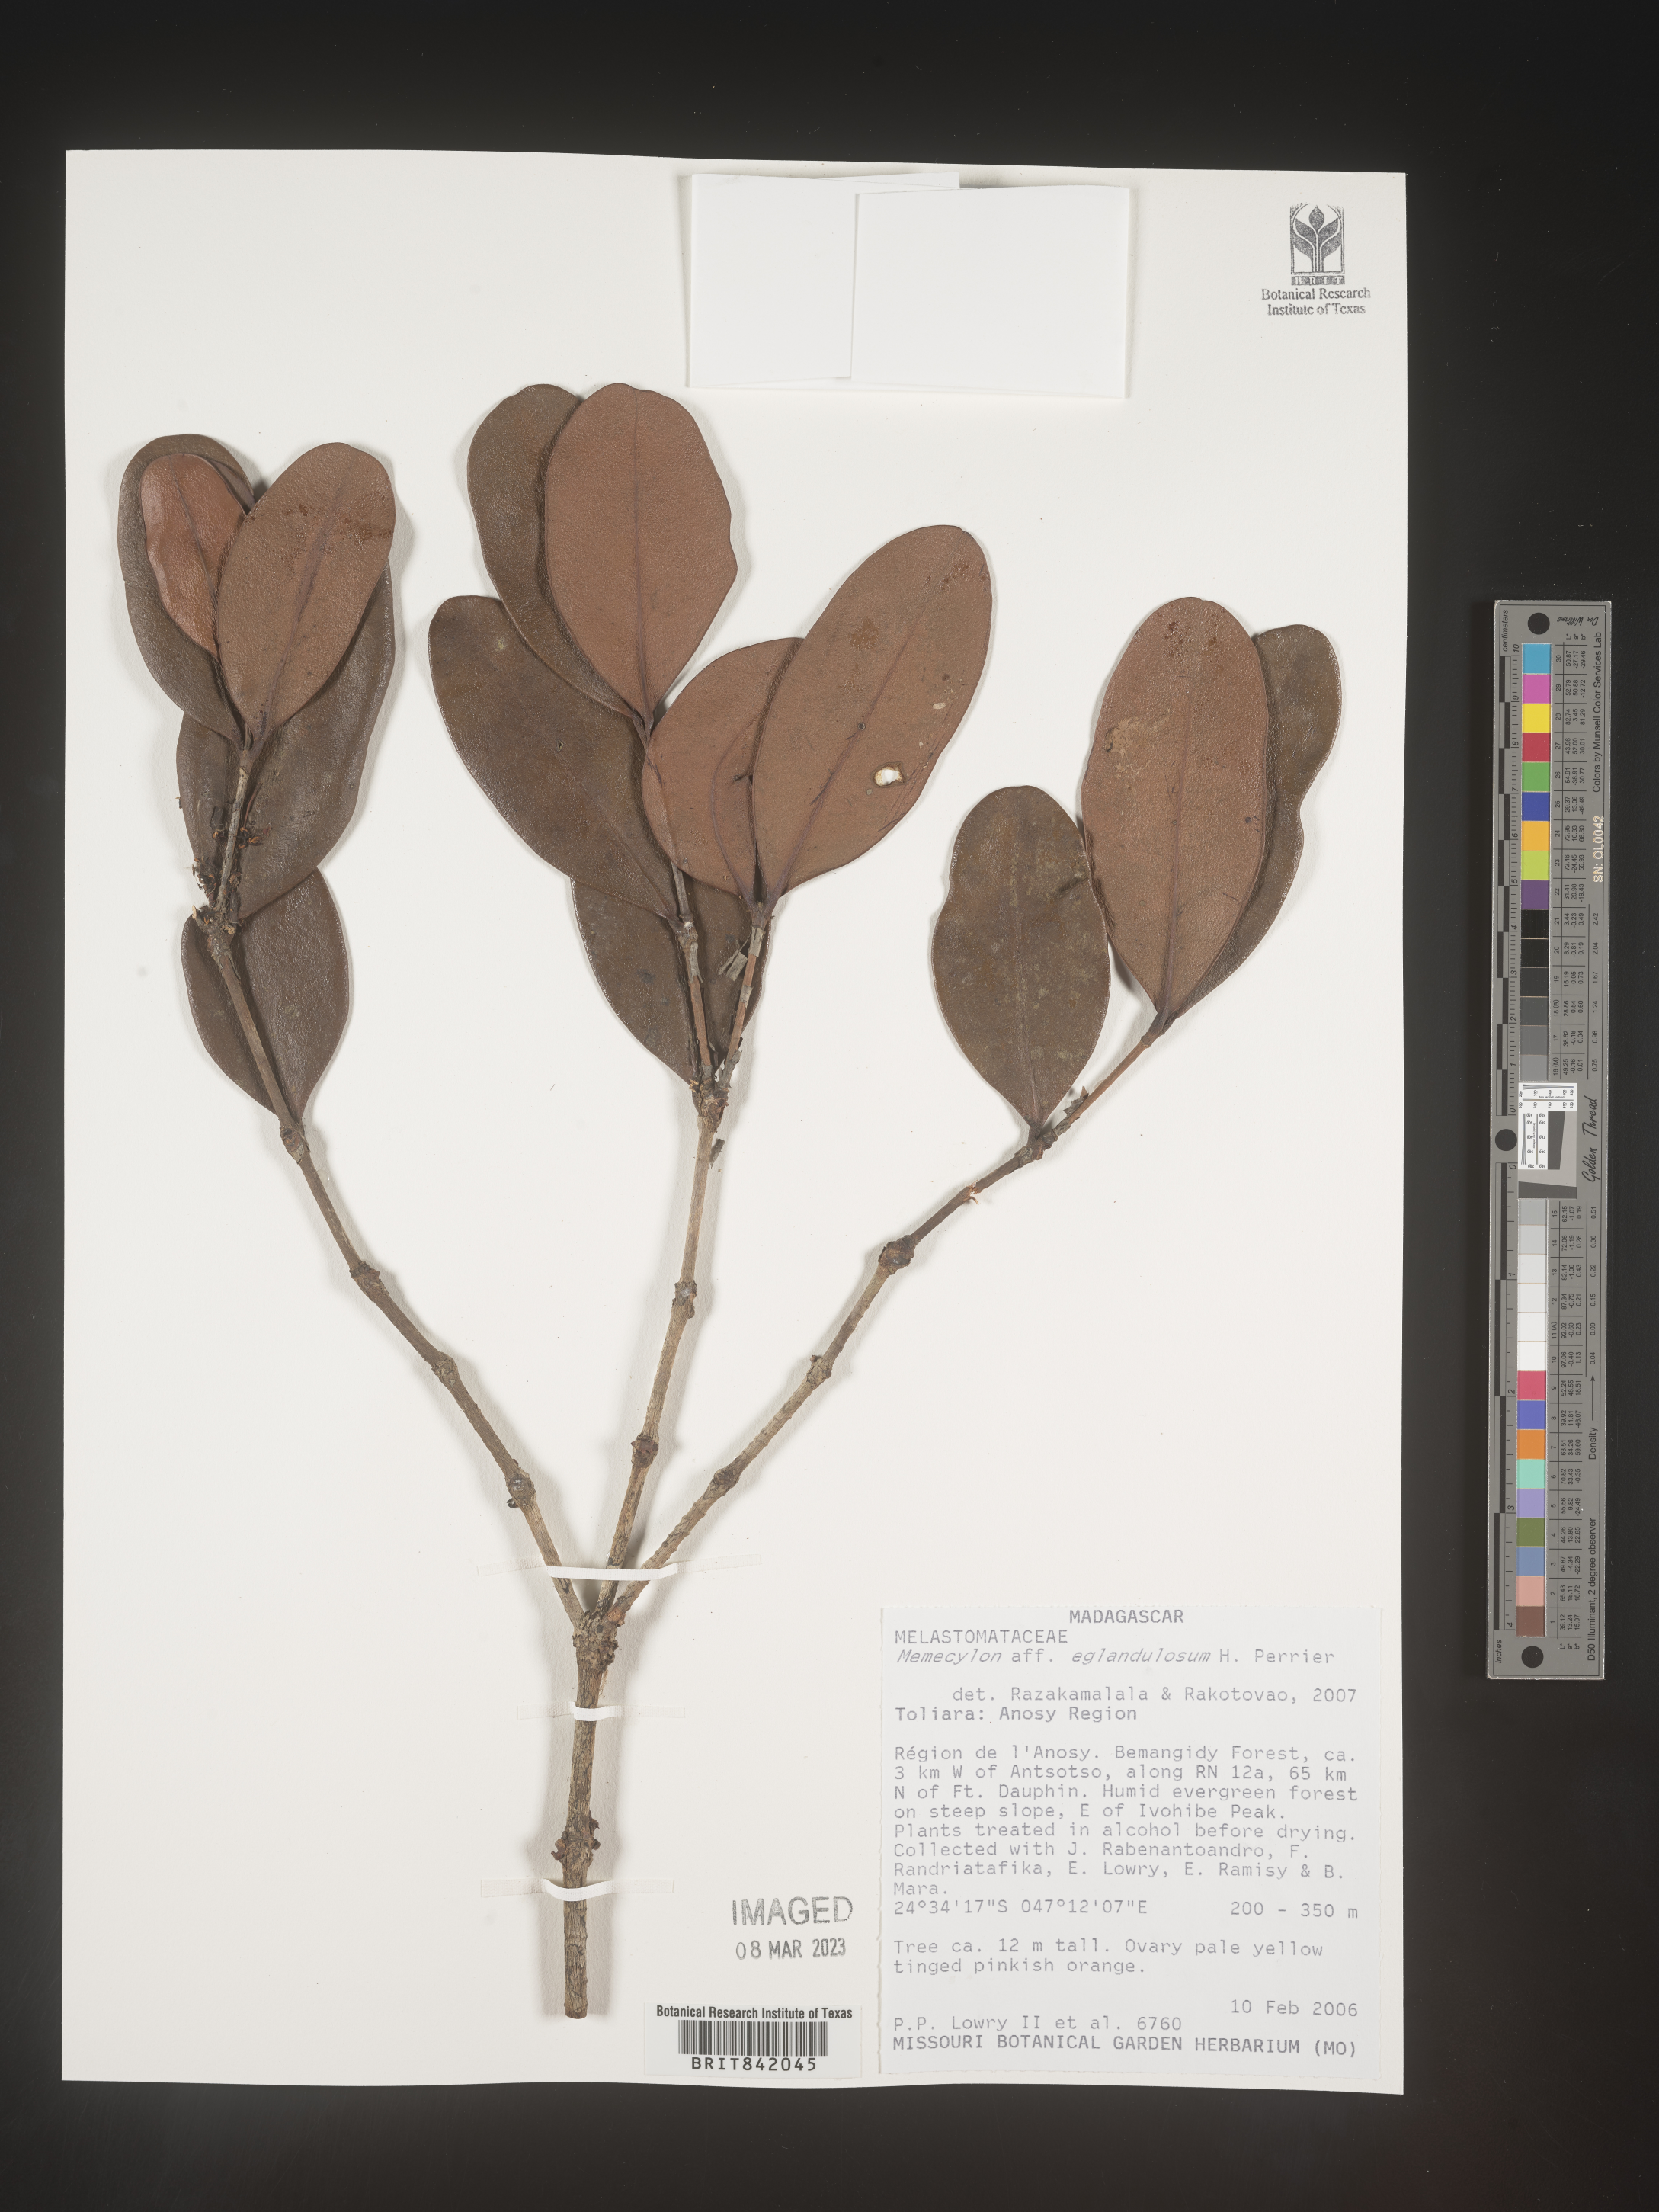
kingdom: Plantae
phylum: Tracheophyta
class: Magnoliopsida
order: Myrtales
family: Melastomataceae
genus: Memecylon
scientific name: Memecylon eglandulosum
